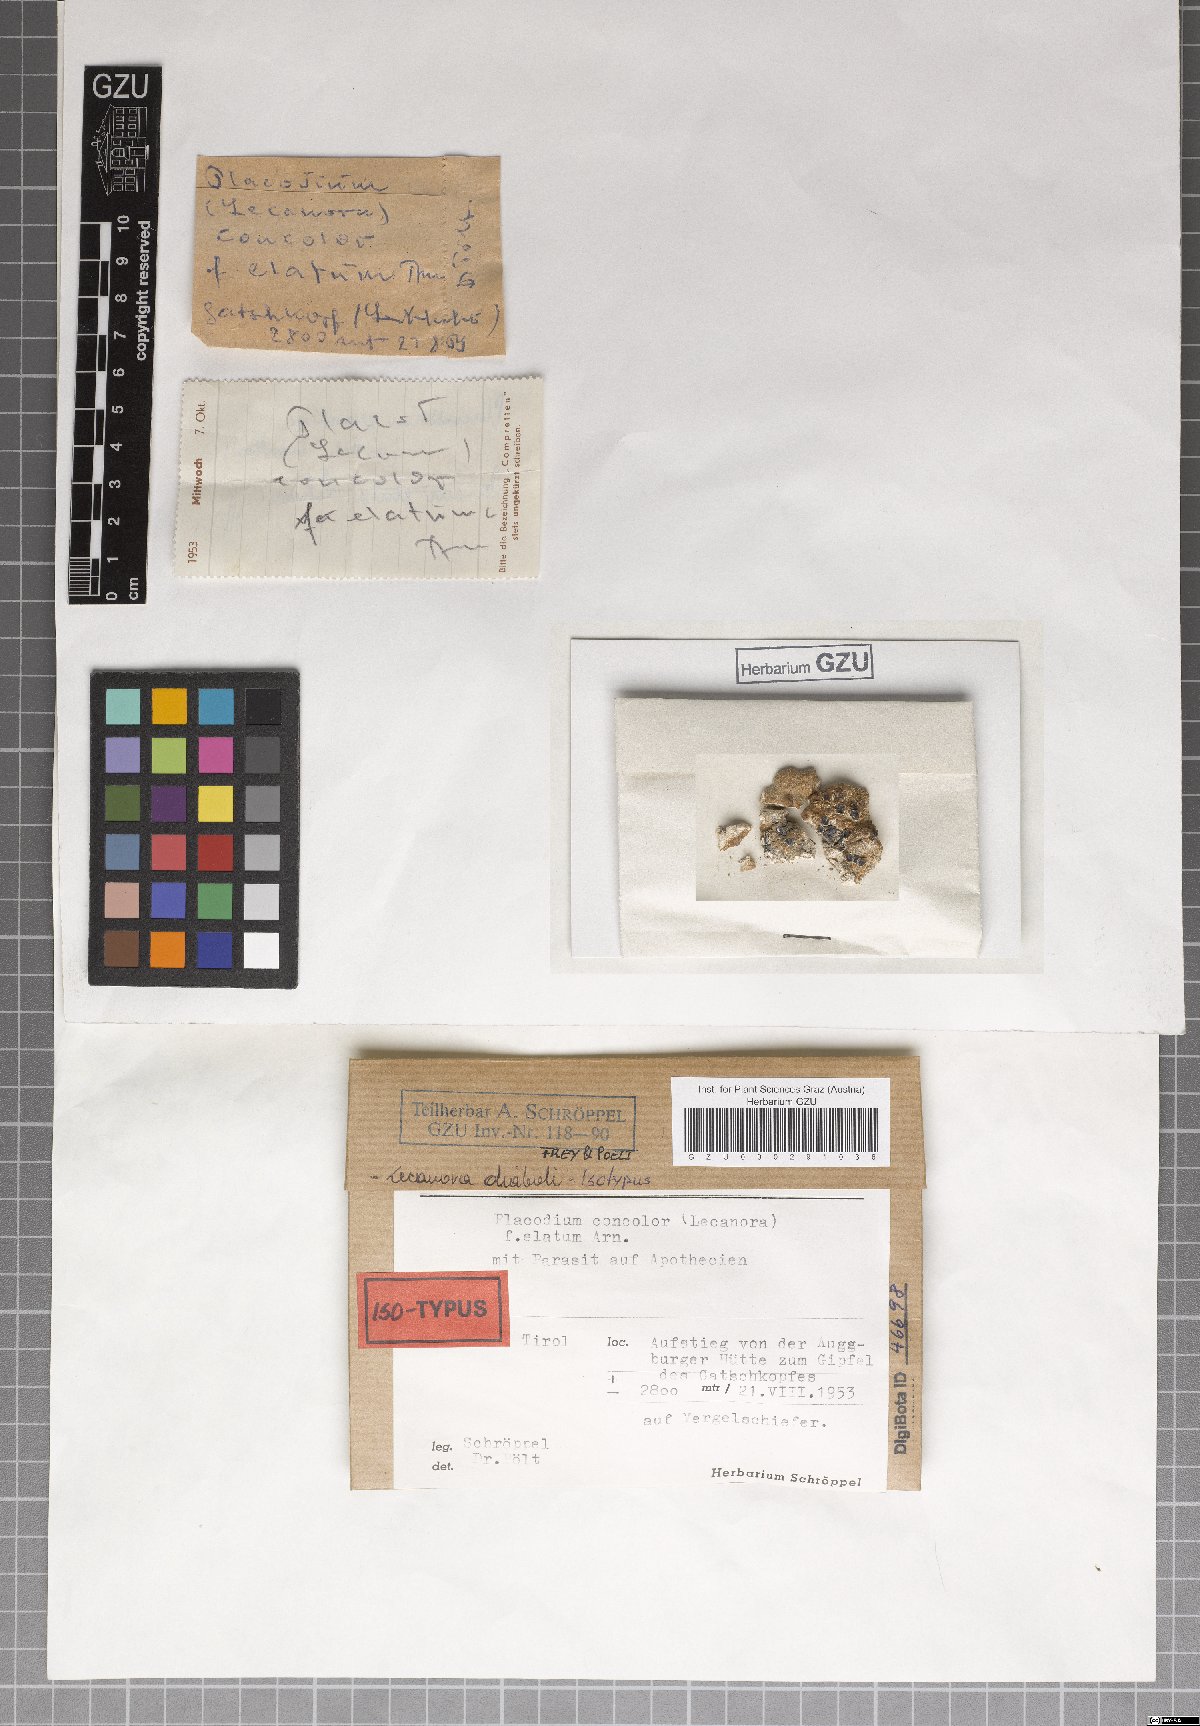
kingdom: Fungi
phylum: Ascomycota
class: Lecanoromycetes
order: Lecanorales
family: Lecanoraceae
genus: Lecanora
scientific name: Lecanora diaboli
